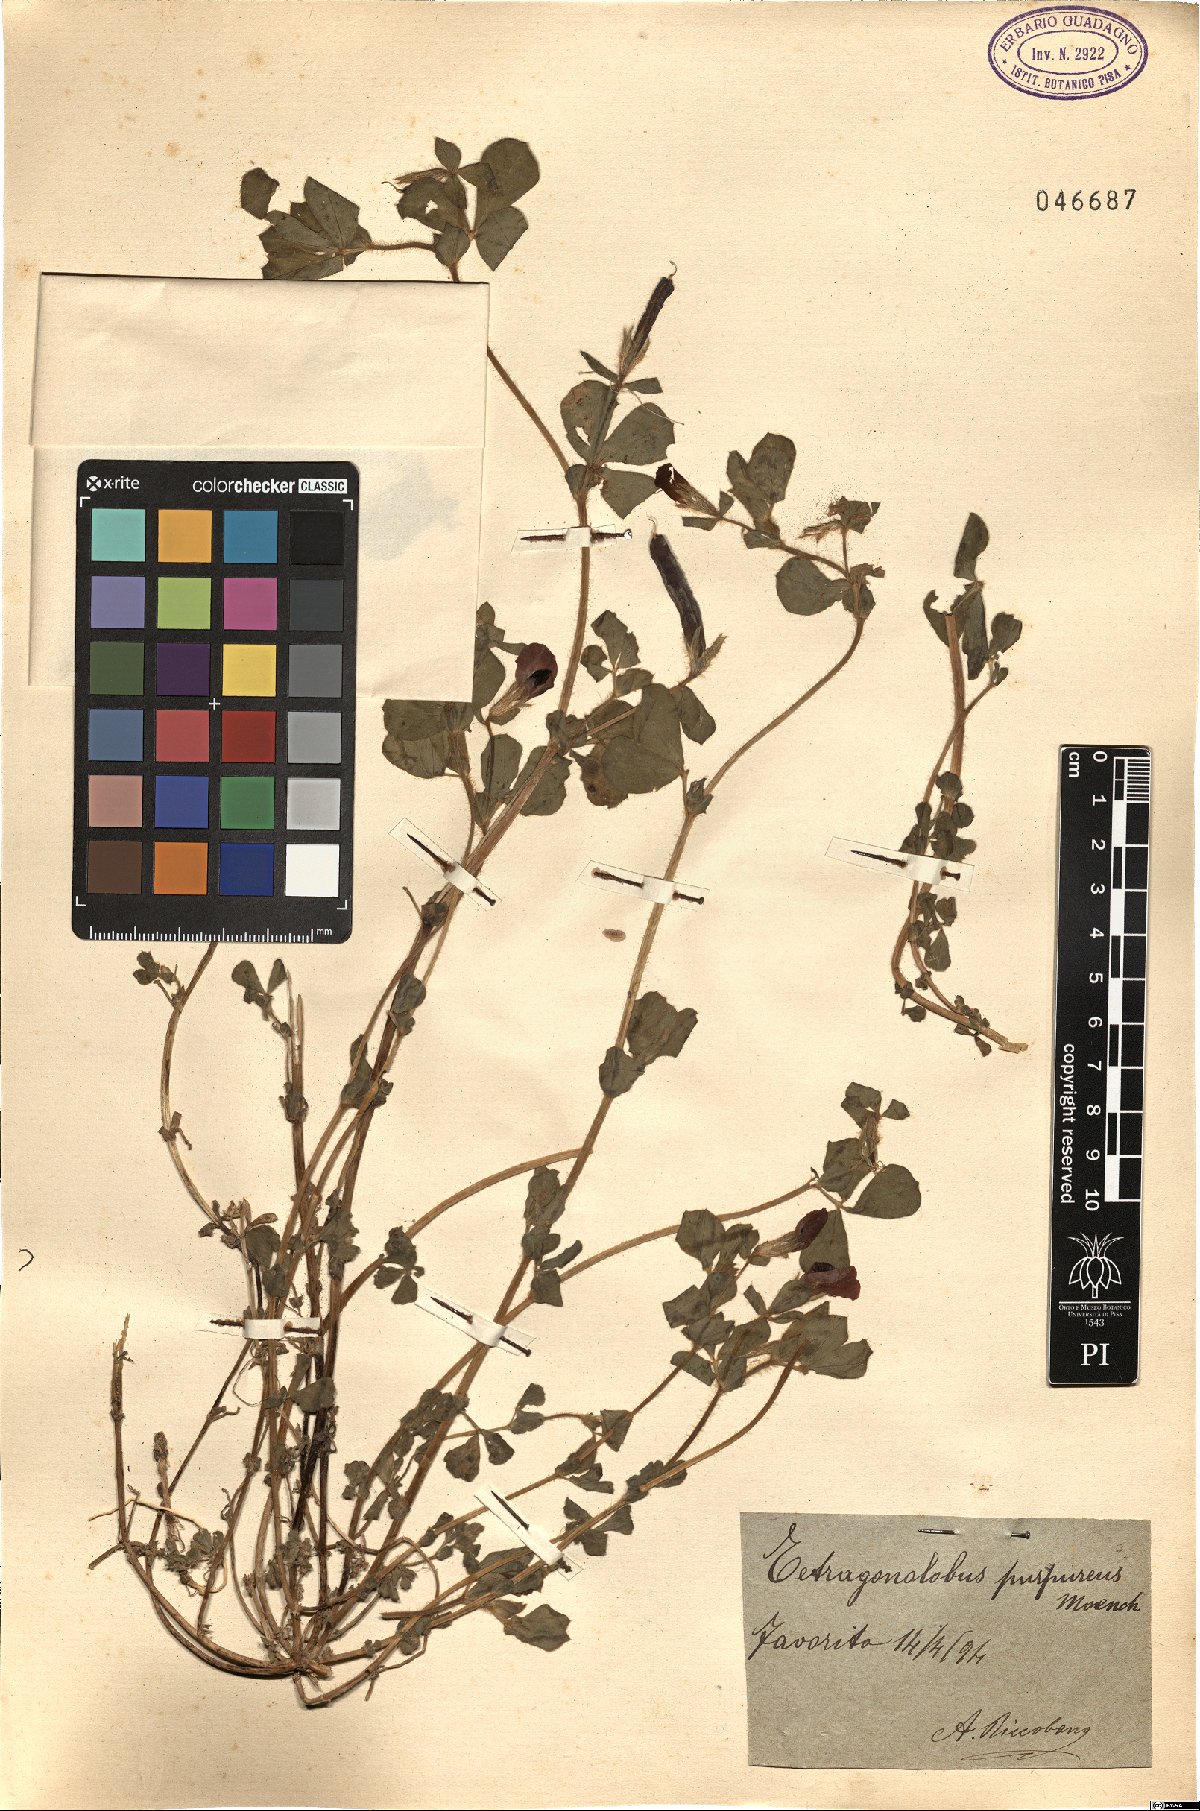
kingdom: Plantae
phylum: Tracheophyta
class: Magnoliopsida
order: Fabales
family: Fabaceae
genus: Lotus
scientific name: Lotus tetragonolobus
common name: Asparagus-pea
